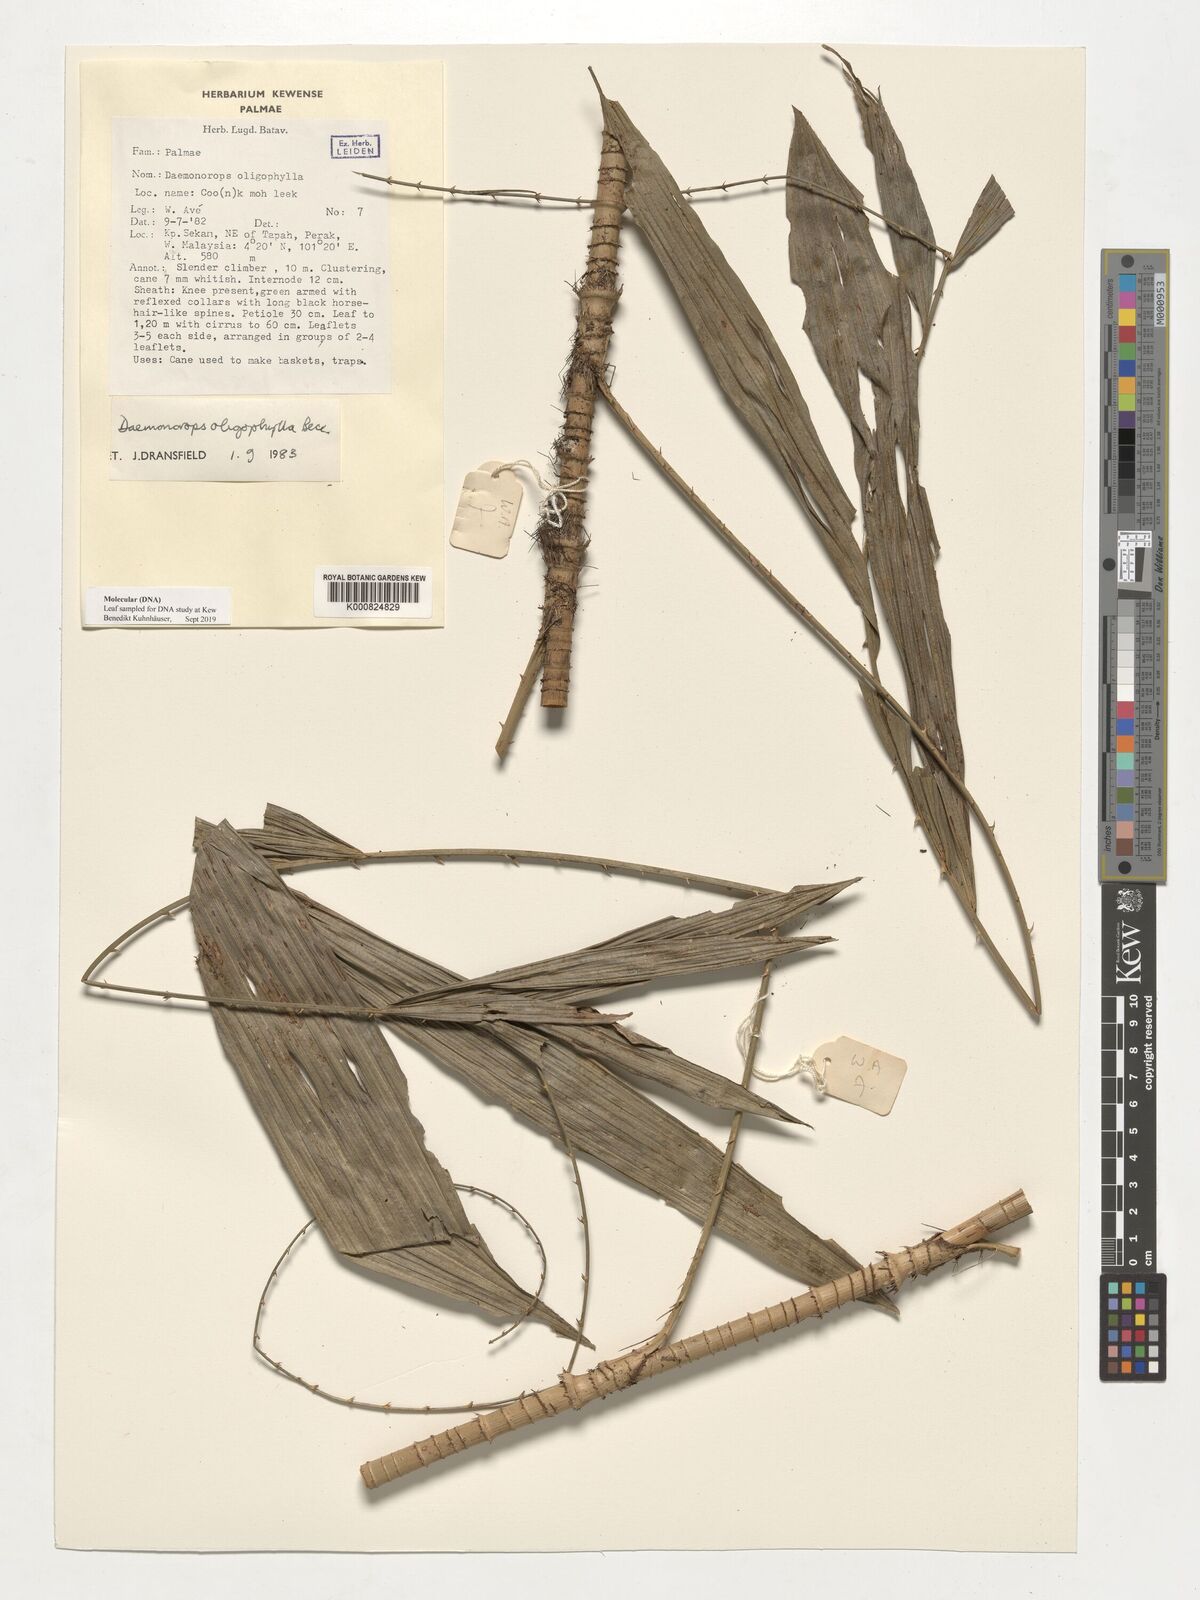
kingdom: Plantae
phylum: Tracheophyta
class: Liliopsida
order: Arecales
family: Arecaceae
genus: Calamus
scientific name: Calamus crinitus
